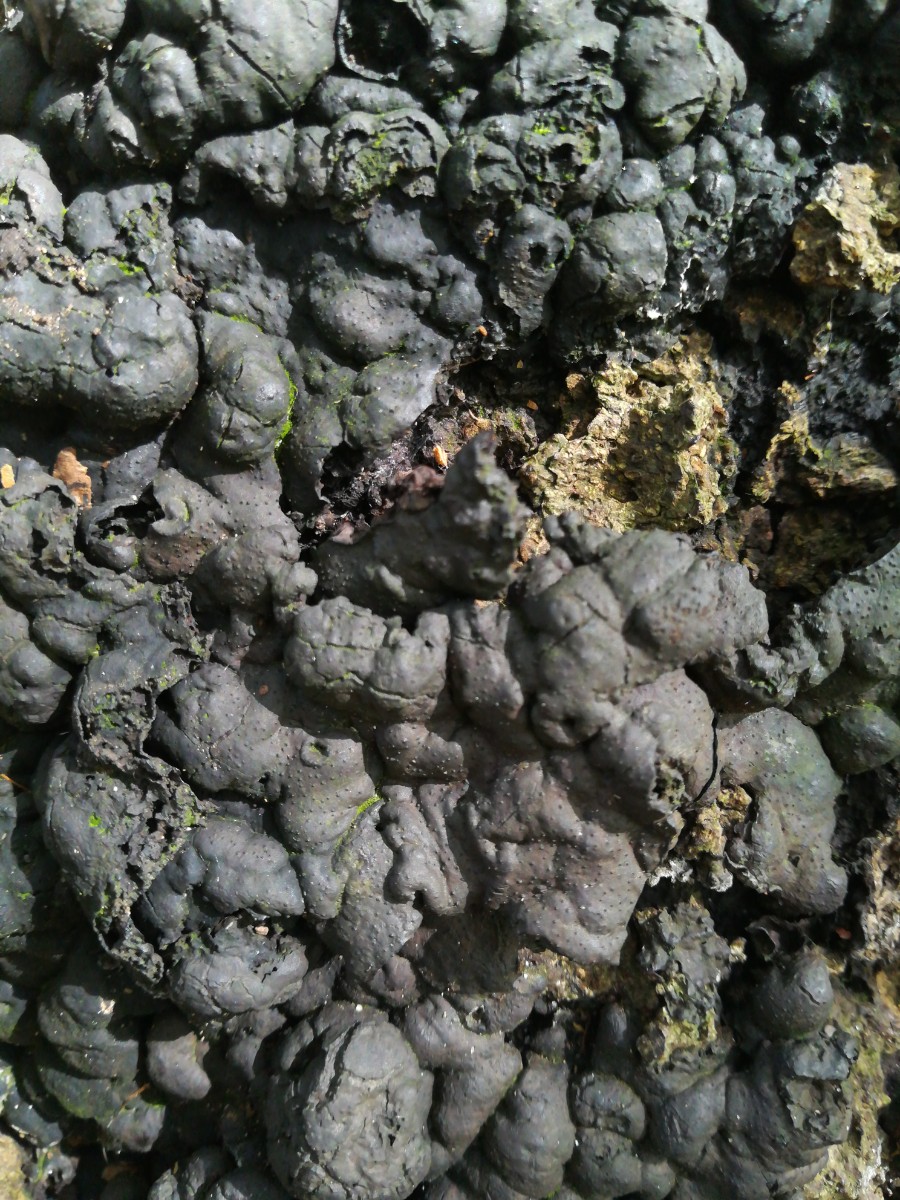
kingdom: Fungi
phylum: Ascomycota
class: Sordariomycetes
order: Xylariales
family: Xylariaceae
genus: Kretzschmaria
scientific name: Kretzschmaria deusta
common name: stor kulsvamp
